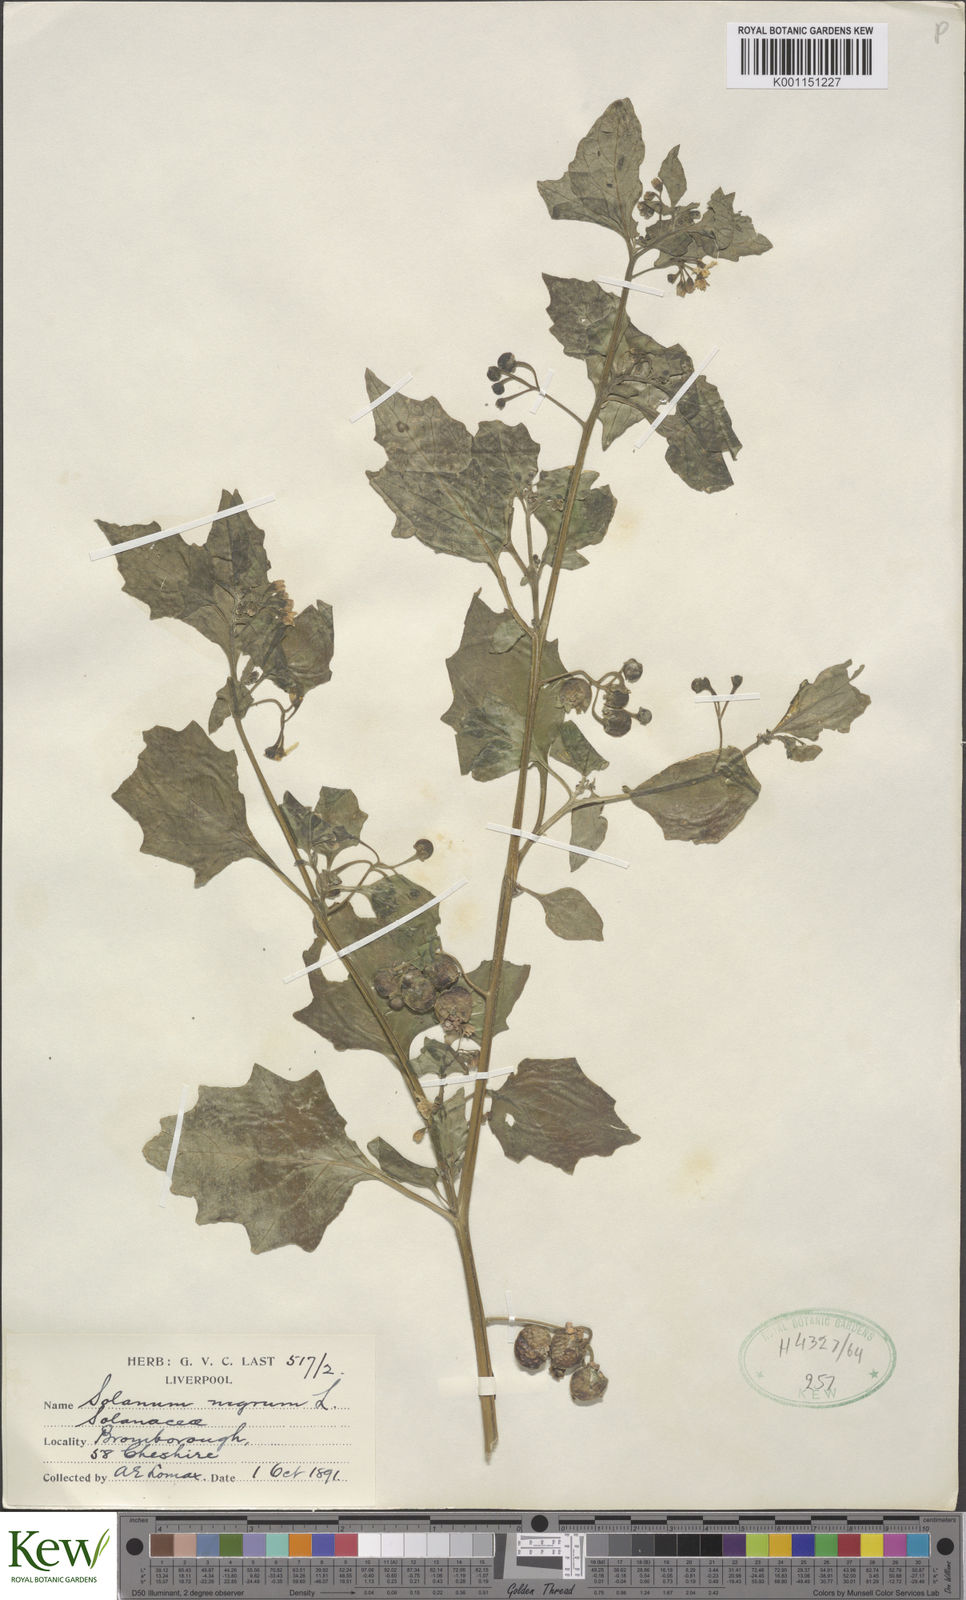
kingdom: Plantae
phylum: Tracheophyta
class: Magnoliopsida
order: Solanales
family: Solanaceae
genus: Solanum
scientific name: Solanum nigrum
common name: Black nightshade
